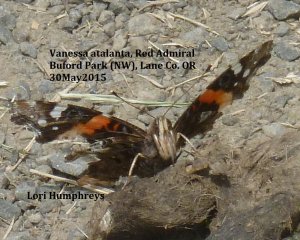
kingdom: Animalia
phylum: Arthropoda
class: Insecta
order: Lepidoptera
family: Nymphalidae
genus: Vanessa
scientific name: Vanessa atalanta
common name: Red Admiral
